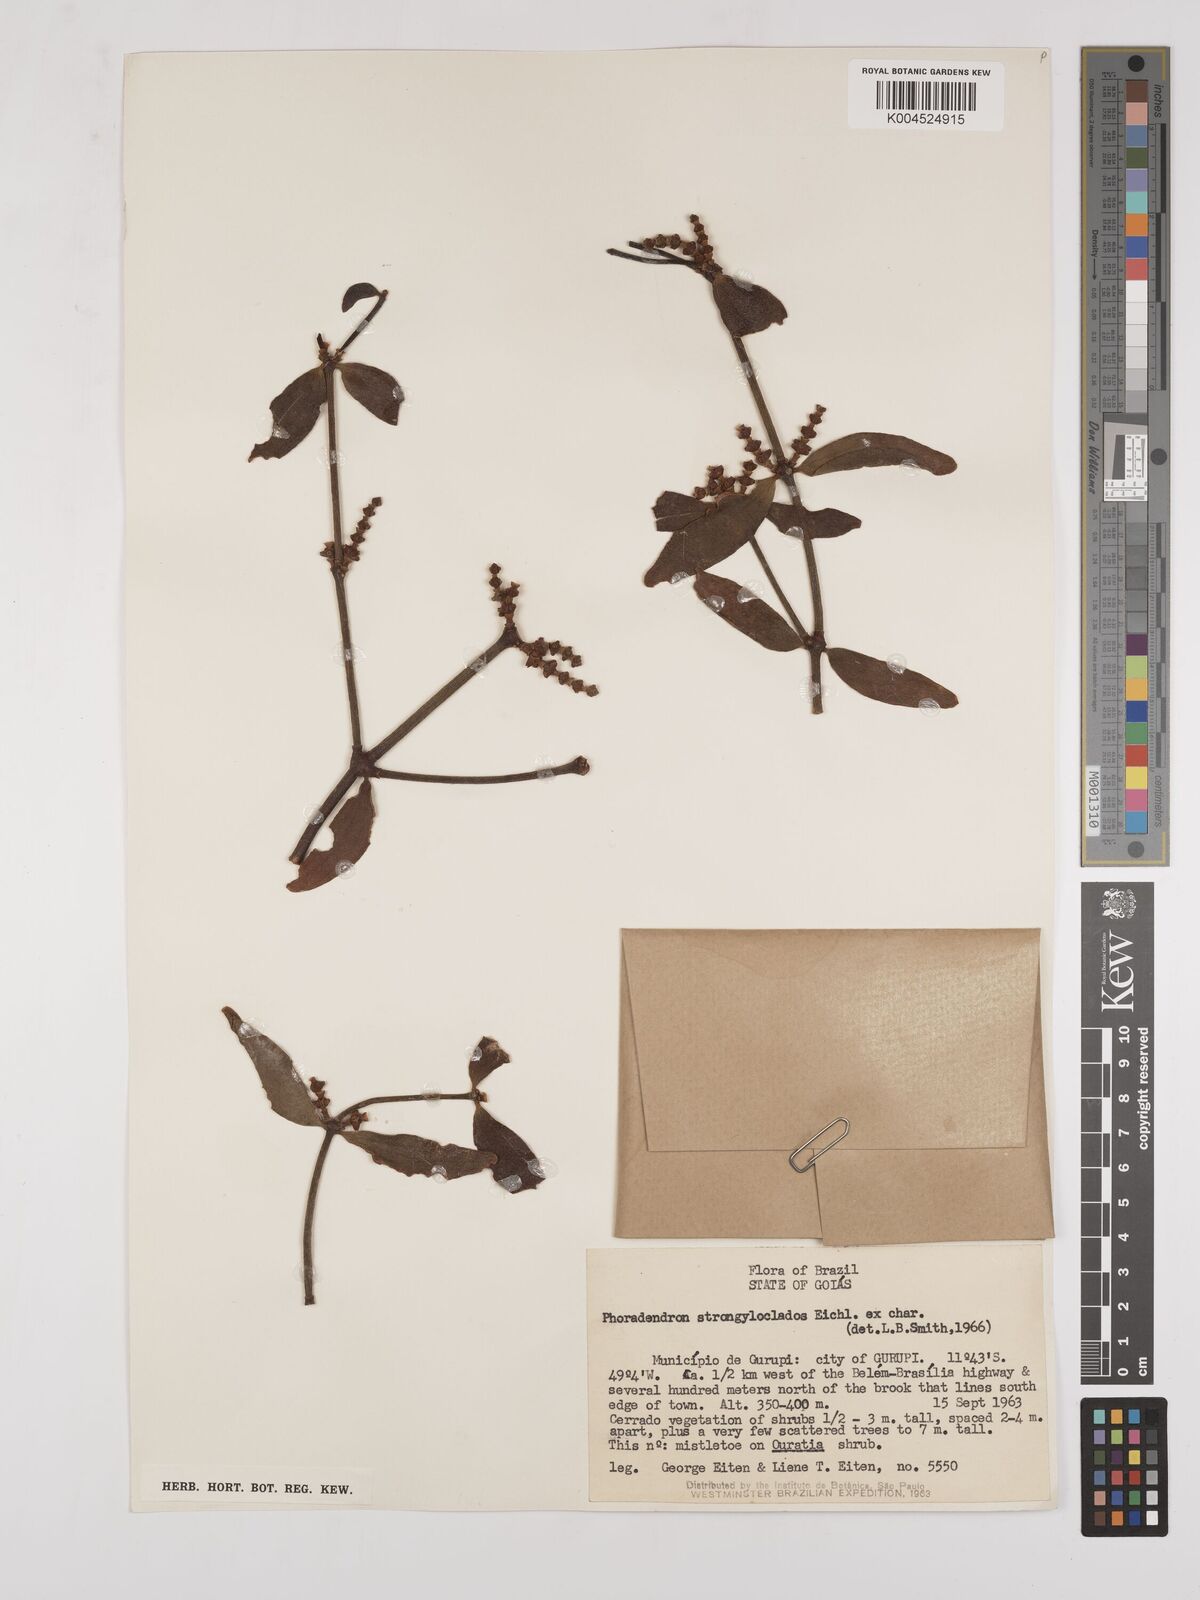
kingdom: Plantae
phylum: Tracheophyta
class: Magnoliopsida
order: Santalales
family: Viscaceae
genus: Phoradendron
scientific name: Phoradendron strongyloclados
